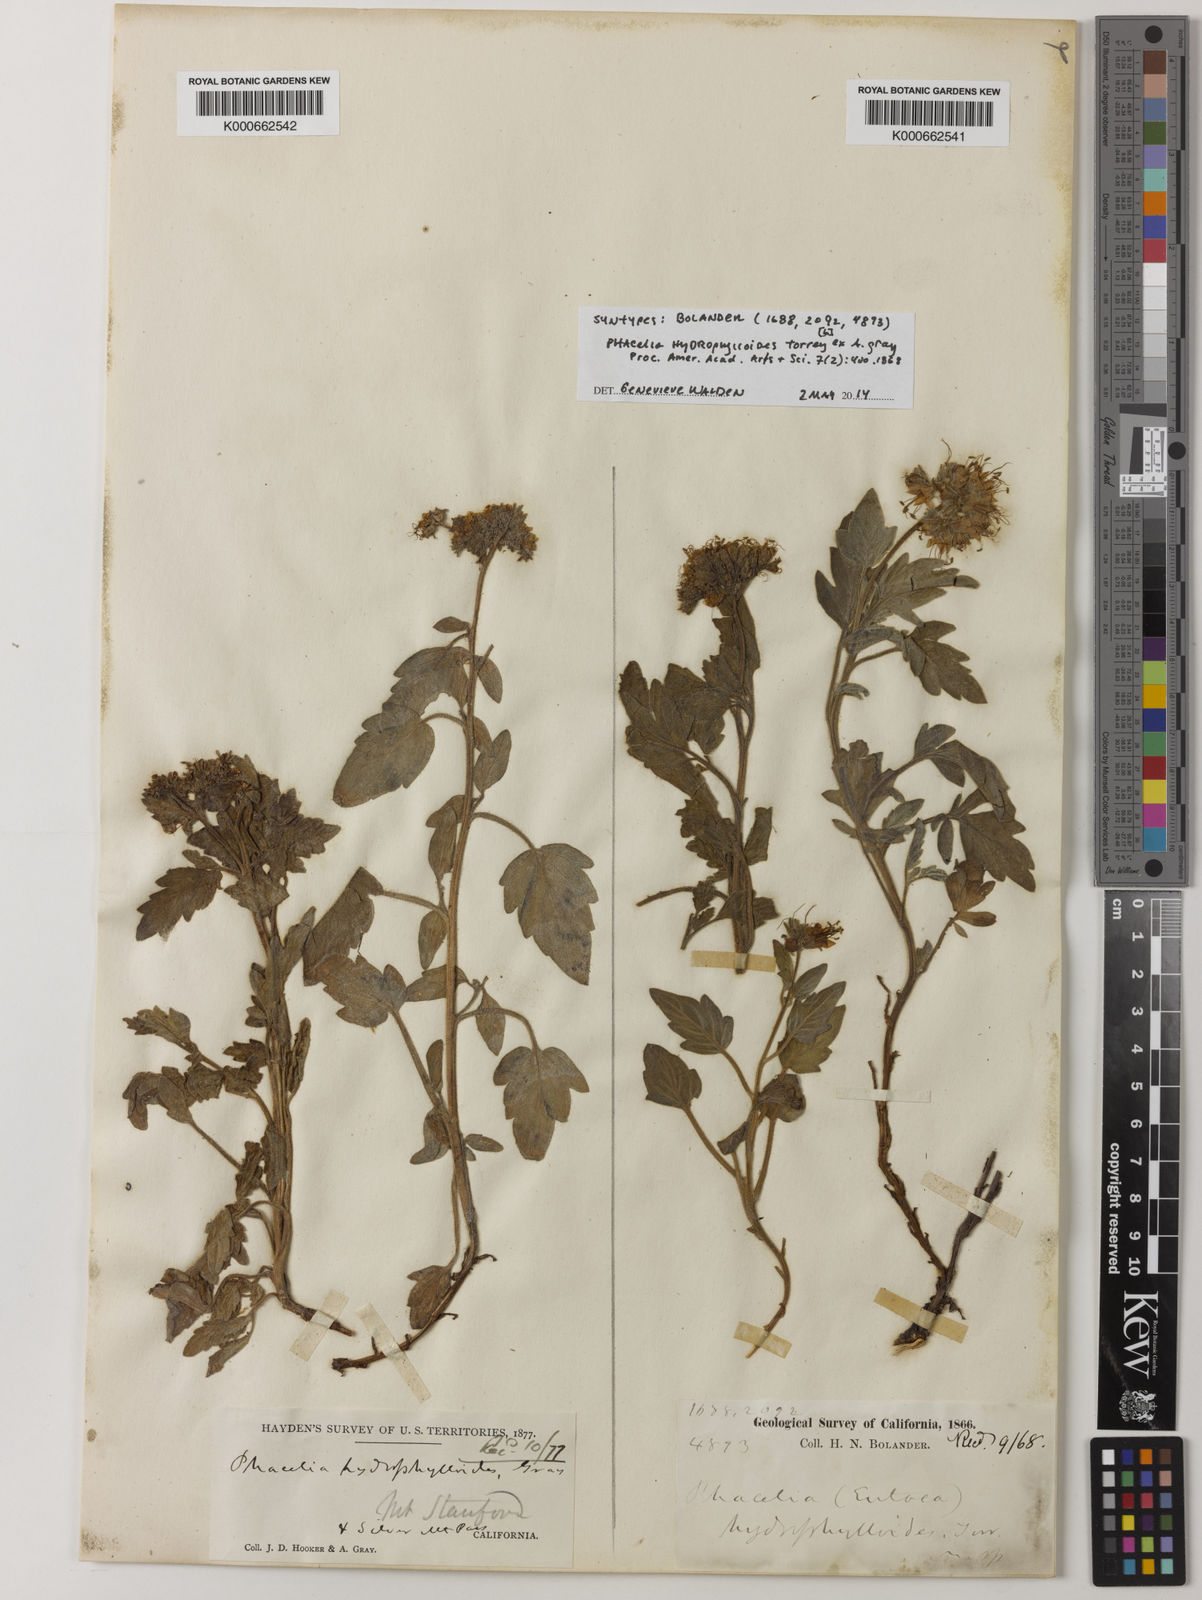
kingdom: Plantae
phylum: Tracheophyta
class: Magnoliopsida
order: Boraginales
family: Hydrophyllaceae
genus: Phacelia
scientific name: Phacelia hydrophylloides
